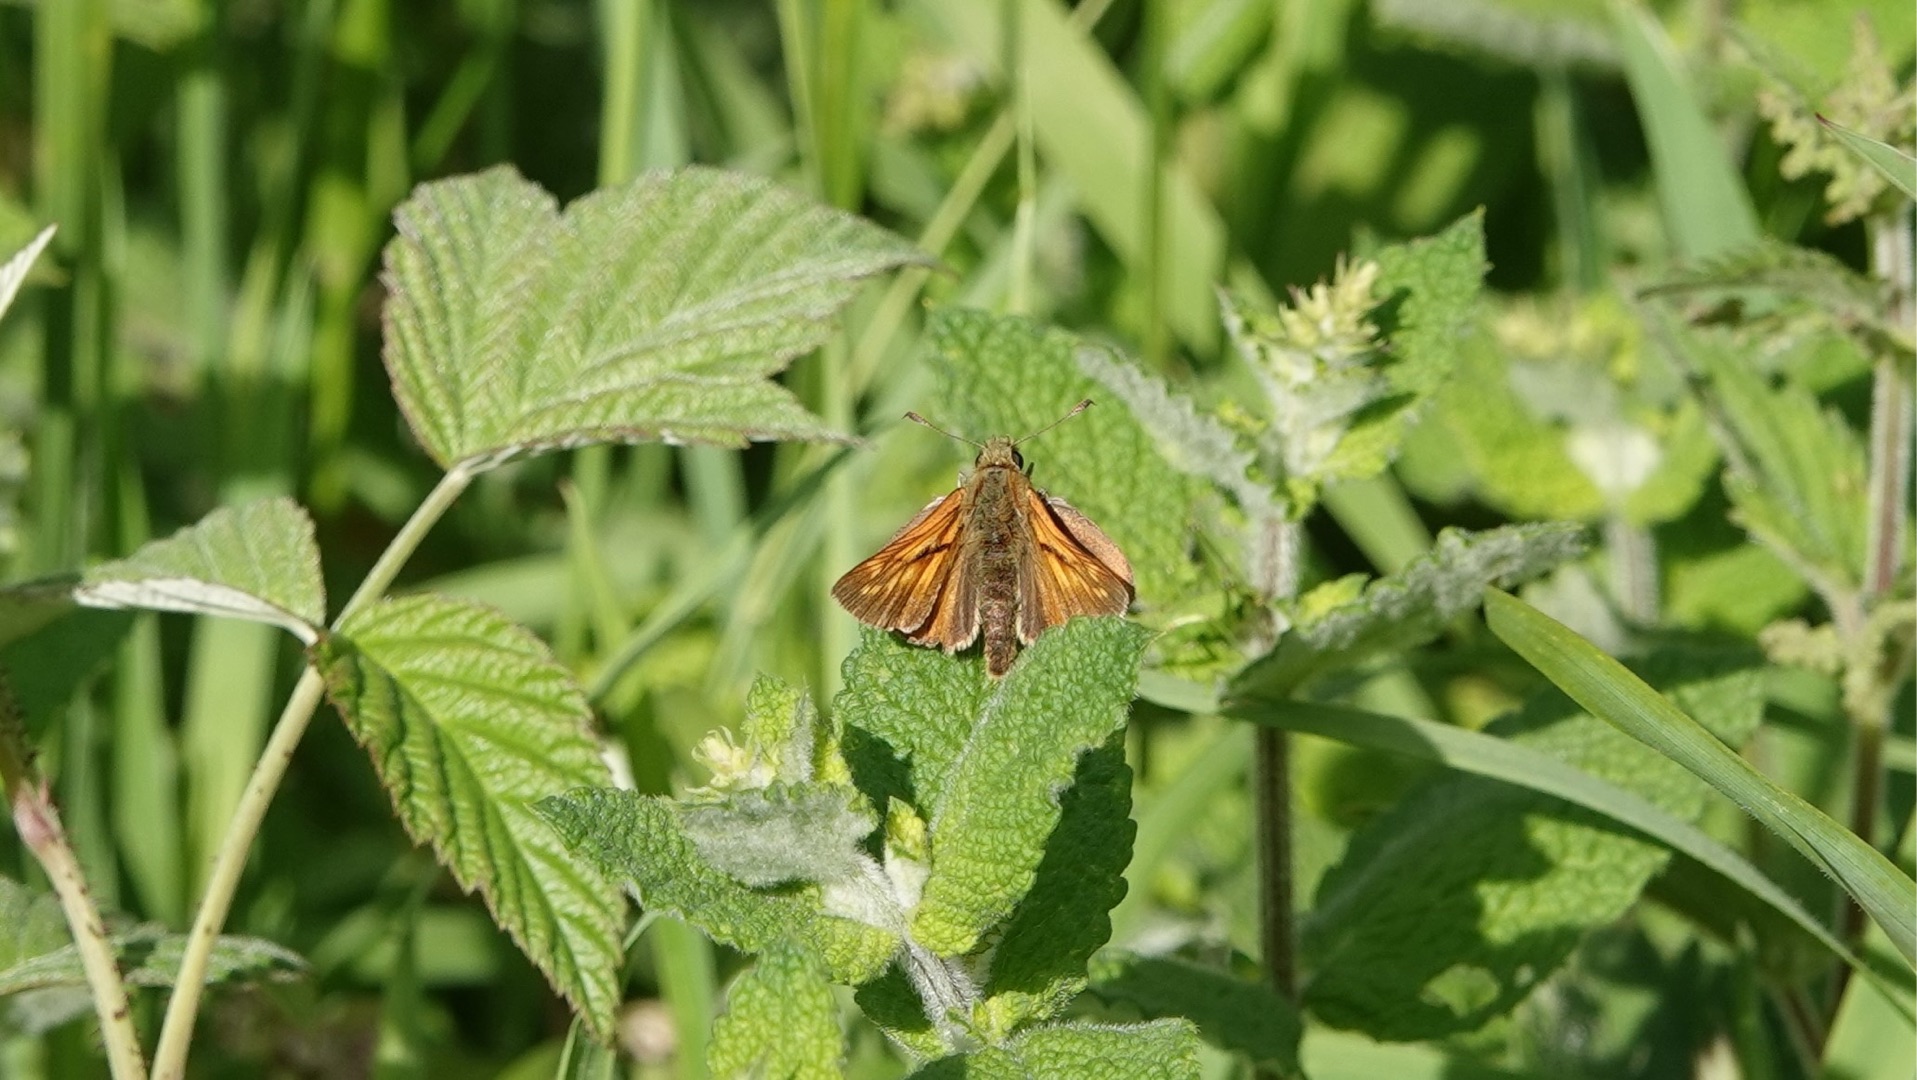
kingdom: Animalia
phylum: Arthropoda
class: Insecta
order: Lepidoptera
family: Hesperiidae
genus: Ochlodes
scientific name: Ochlodes venata
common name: Stor bredpande
